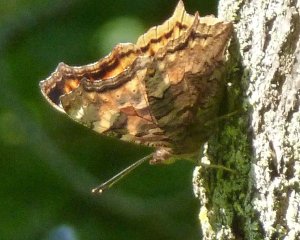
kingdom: Animalia
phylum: Arthropoda
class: Insecta
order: Lepidoptera
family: Nymphalidae
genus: Polygonia
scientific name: Polygonia vaualbum
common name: Compton Tortoiseshell
